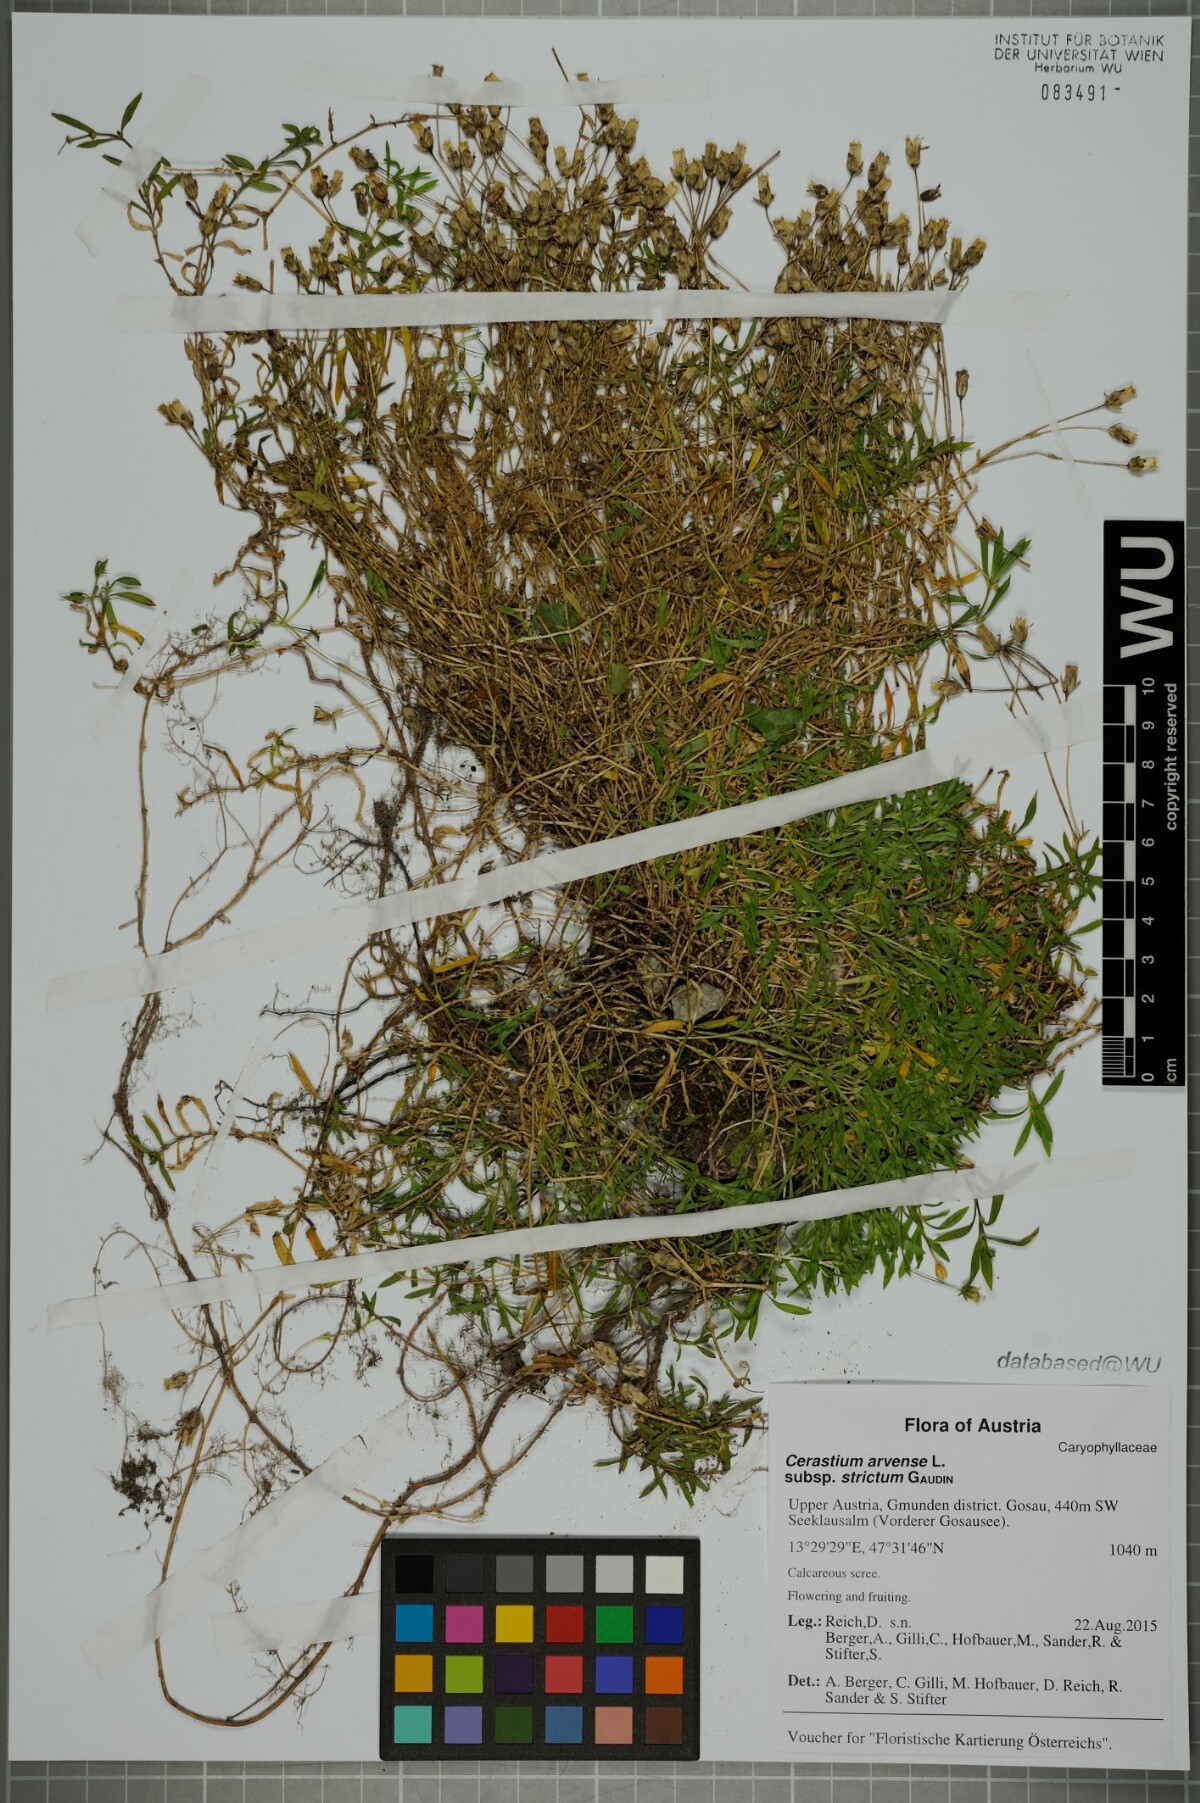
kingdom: Plantae
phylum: Tracheophyta
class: Magnoliopsida
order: Caryophyllales
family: Caryophyllaceae
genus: Cerastium
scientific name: Cerastium elongatum
